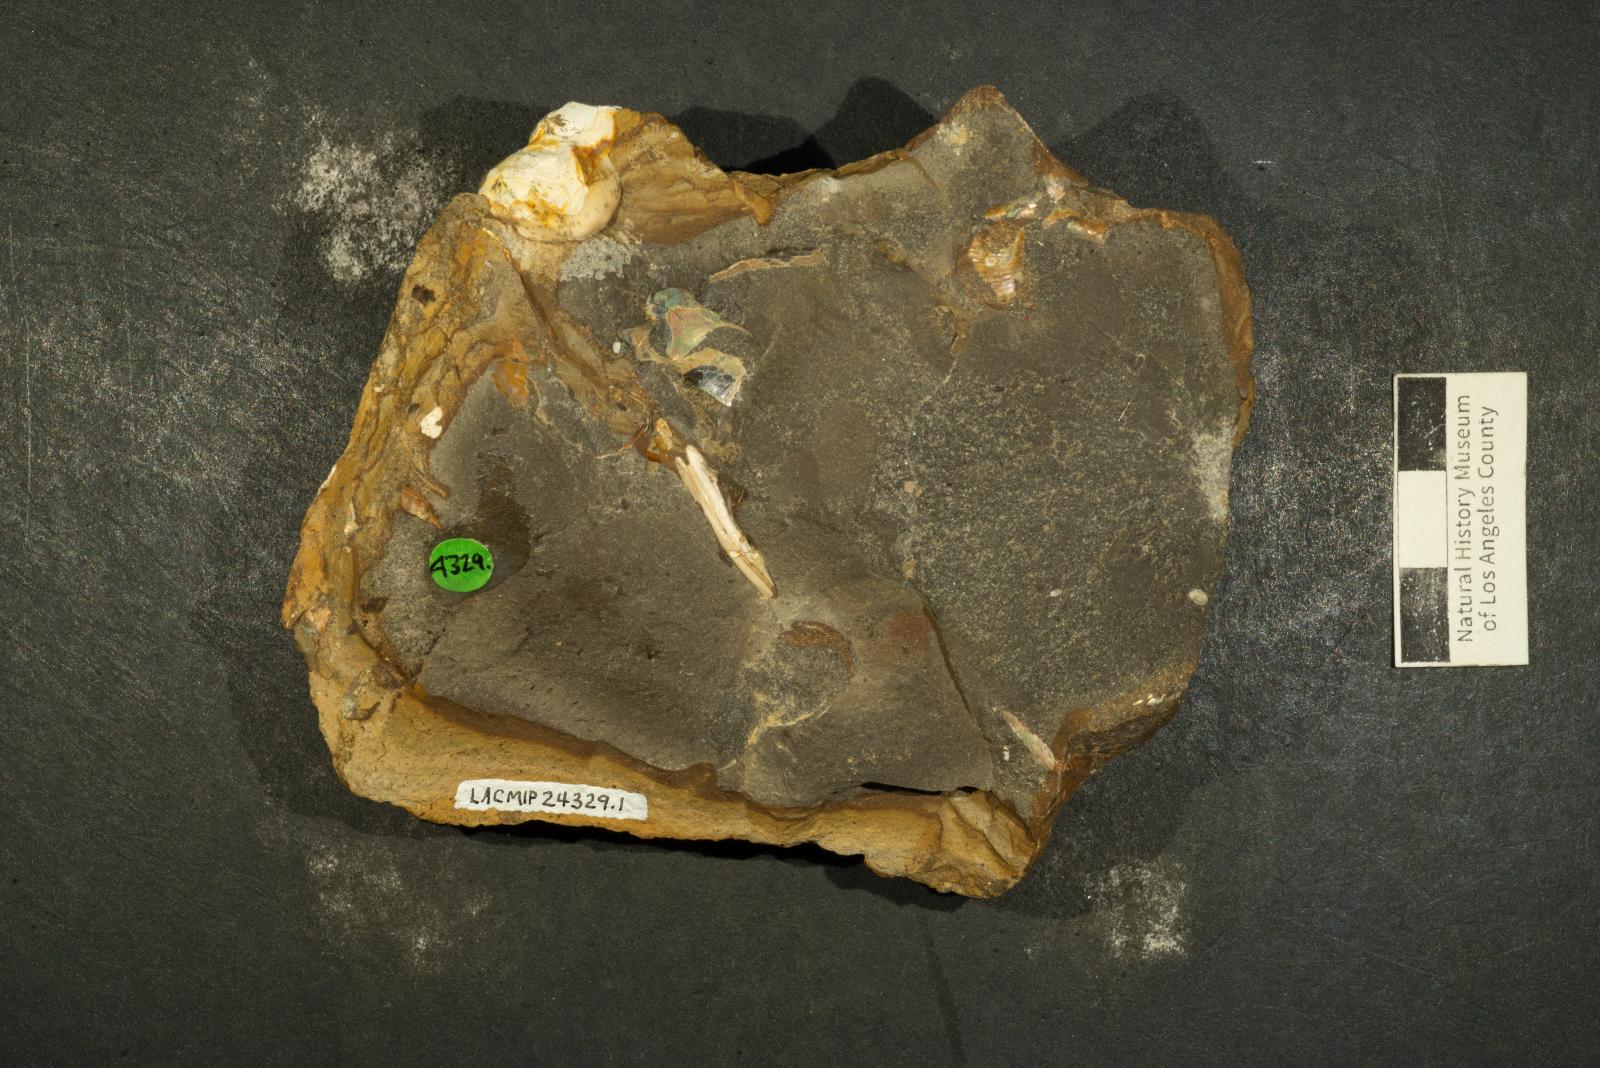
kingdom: Animalia
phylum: Mollusca
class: Gastropoda
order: Littorinimorpha
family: Aporrhaidae
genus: Tessarolax
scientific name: Tessarolax bullardi
